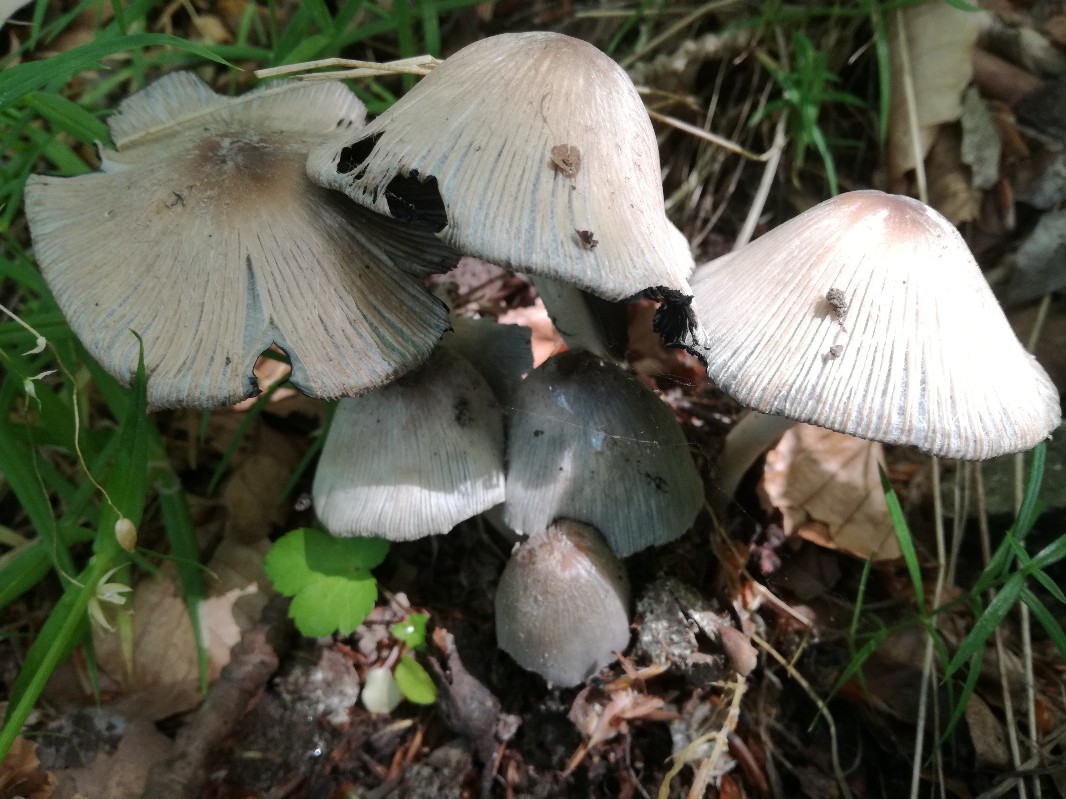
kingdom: Fungi
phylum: Basidiomycota
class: Agaricomycetes
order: Agaricales
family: Psathyrellaceae
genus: Coprinopsis
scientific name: Coprinopsis insignis
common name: stor blækhat
